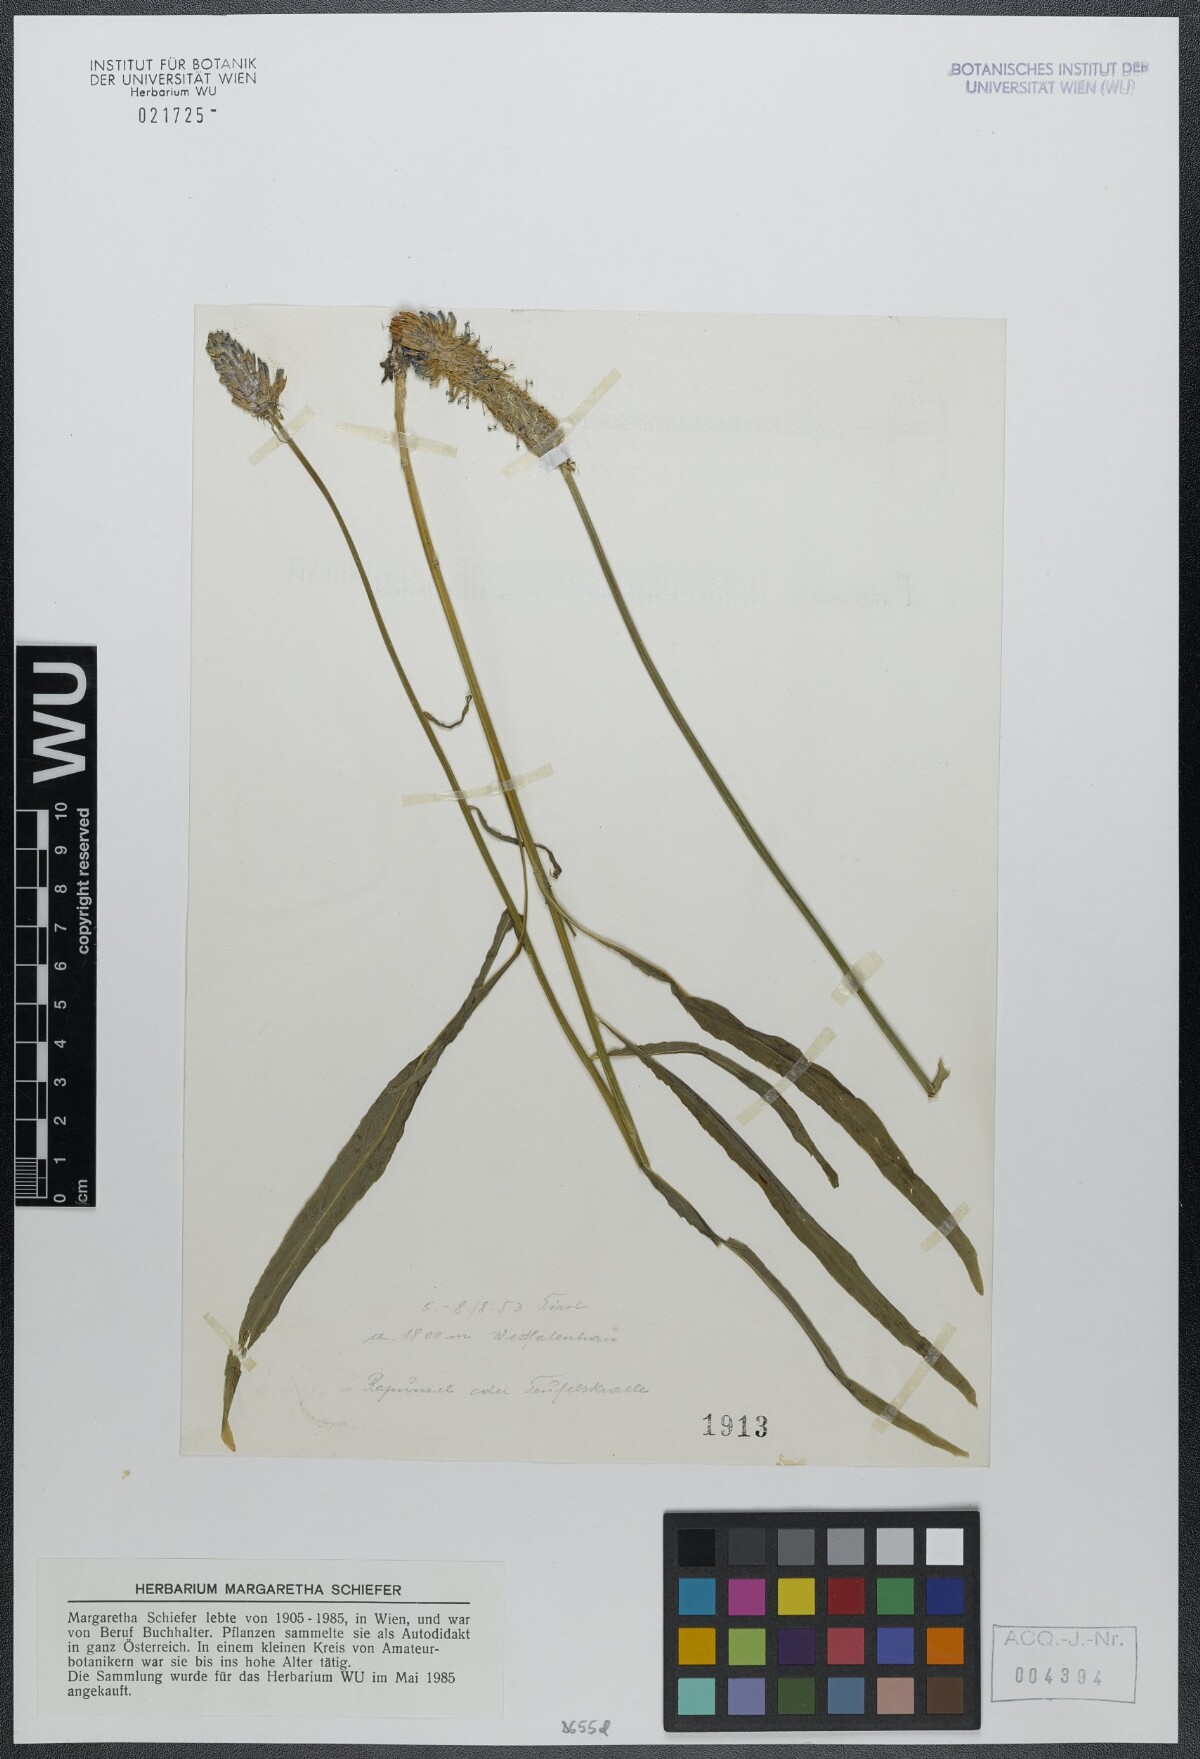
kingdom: Plantae
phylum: Tracheophyta
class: Magnoliopsida
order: Asterales
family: Campanulaceae
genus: Phyteuma
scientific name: Phyteuma scheuchzeri
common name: Oxford rampion
